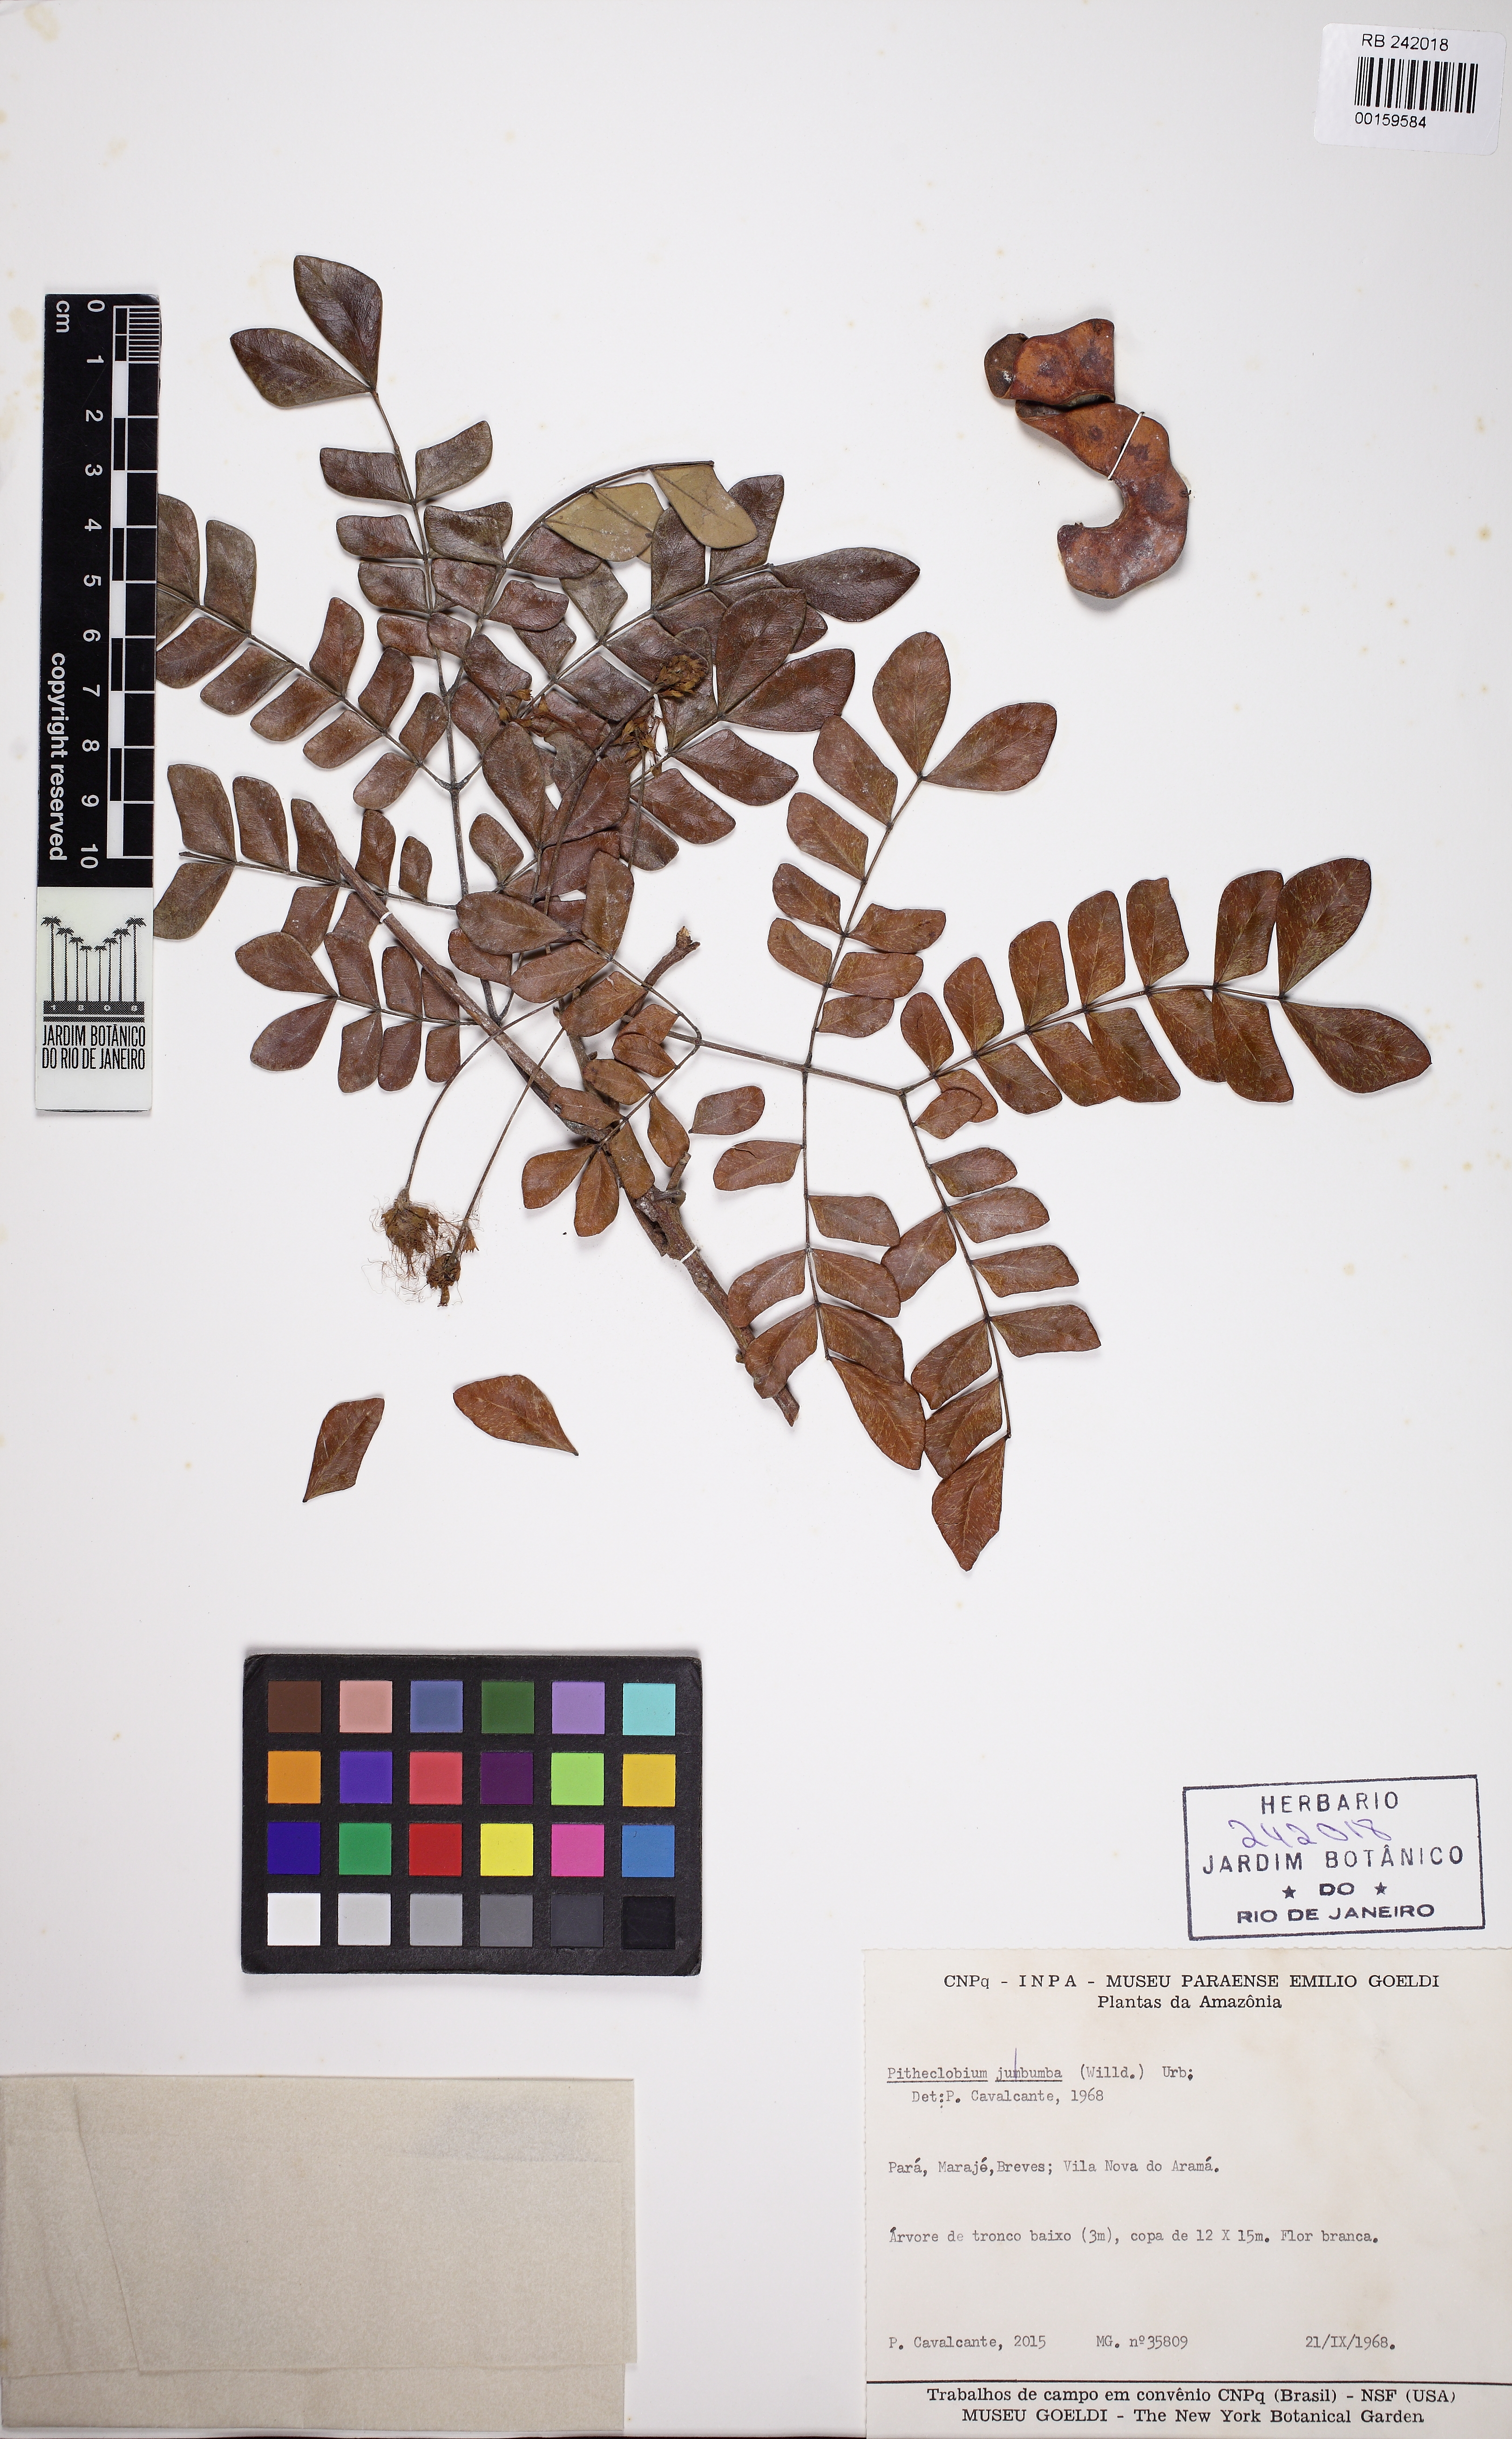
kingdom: Plantae
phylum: Tracheophyta
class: Magnoliopsida
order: Fabales
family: Fabaceae
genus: Jupunba
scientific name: Jupunba trapezifolia
